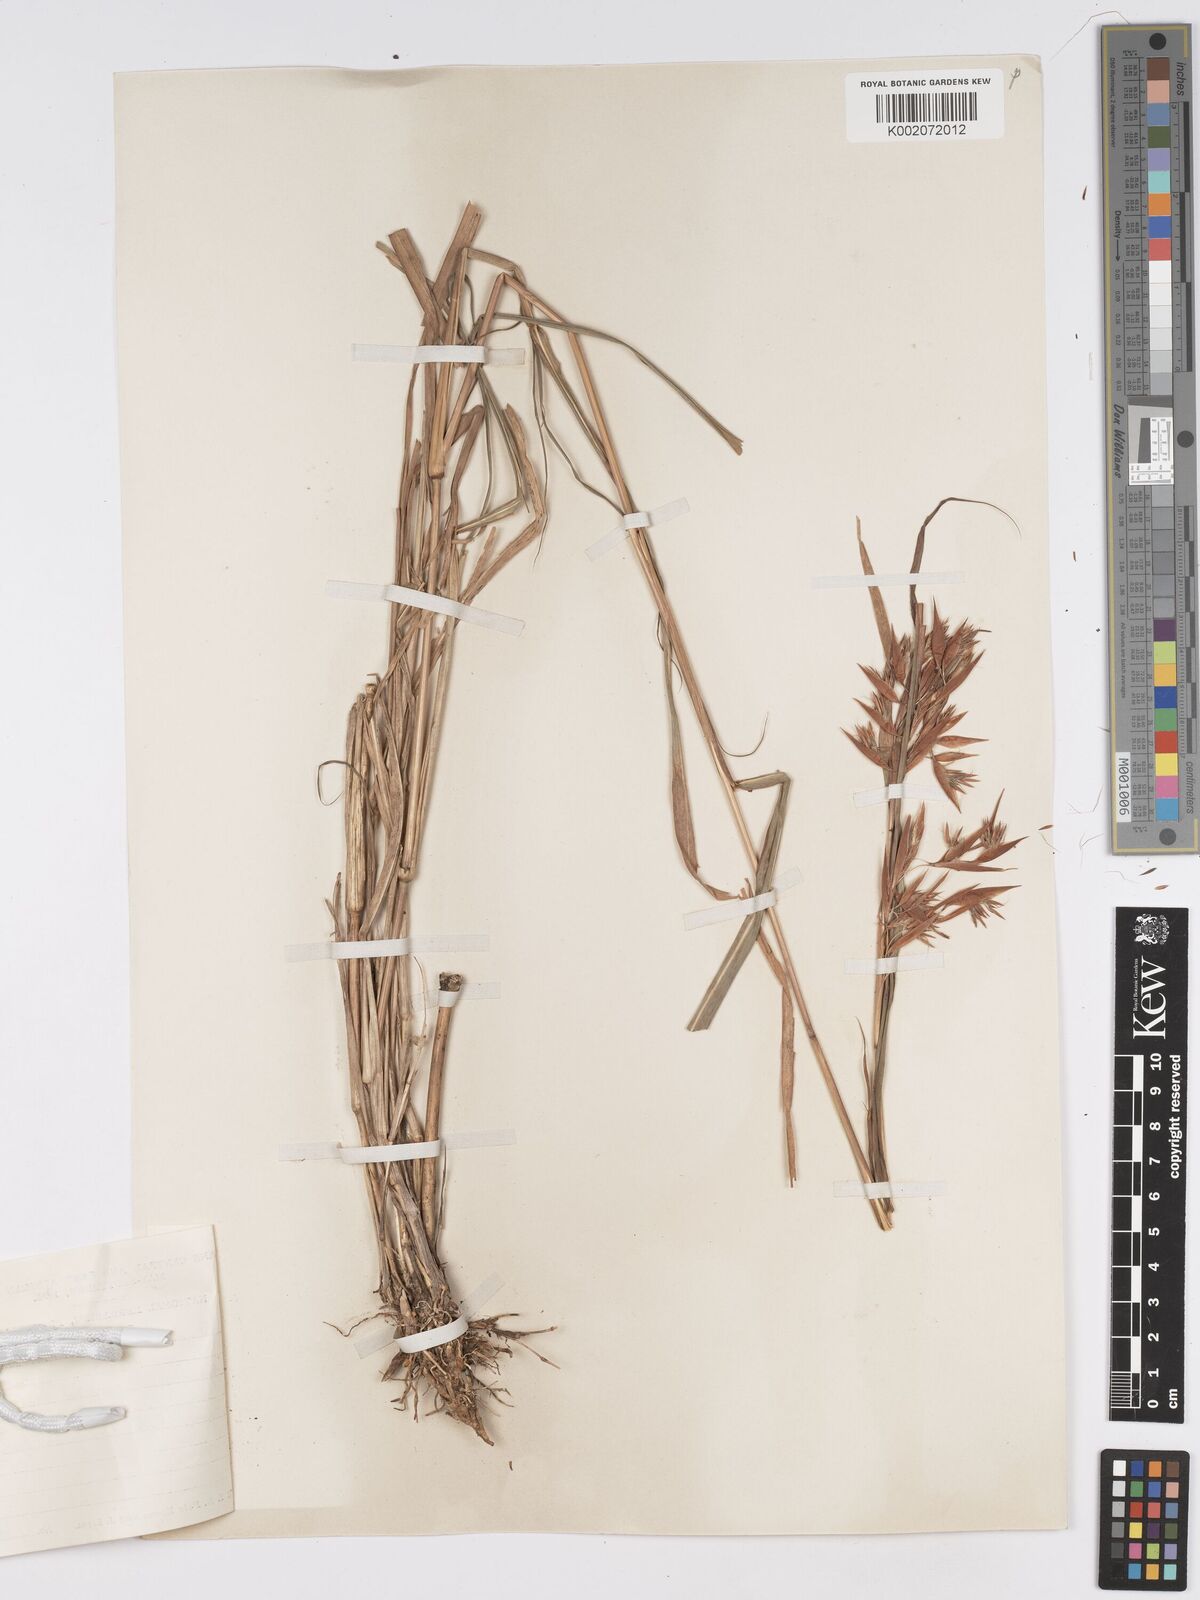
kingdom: Plantae
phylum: Tracheophyta
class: Liliopsida
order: Poales
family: Poaceae
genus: Hyparrhenia
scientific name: Hyparrhenia cymbaria
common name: Boat thatching grass
